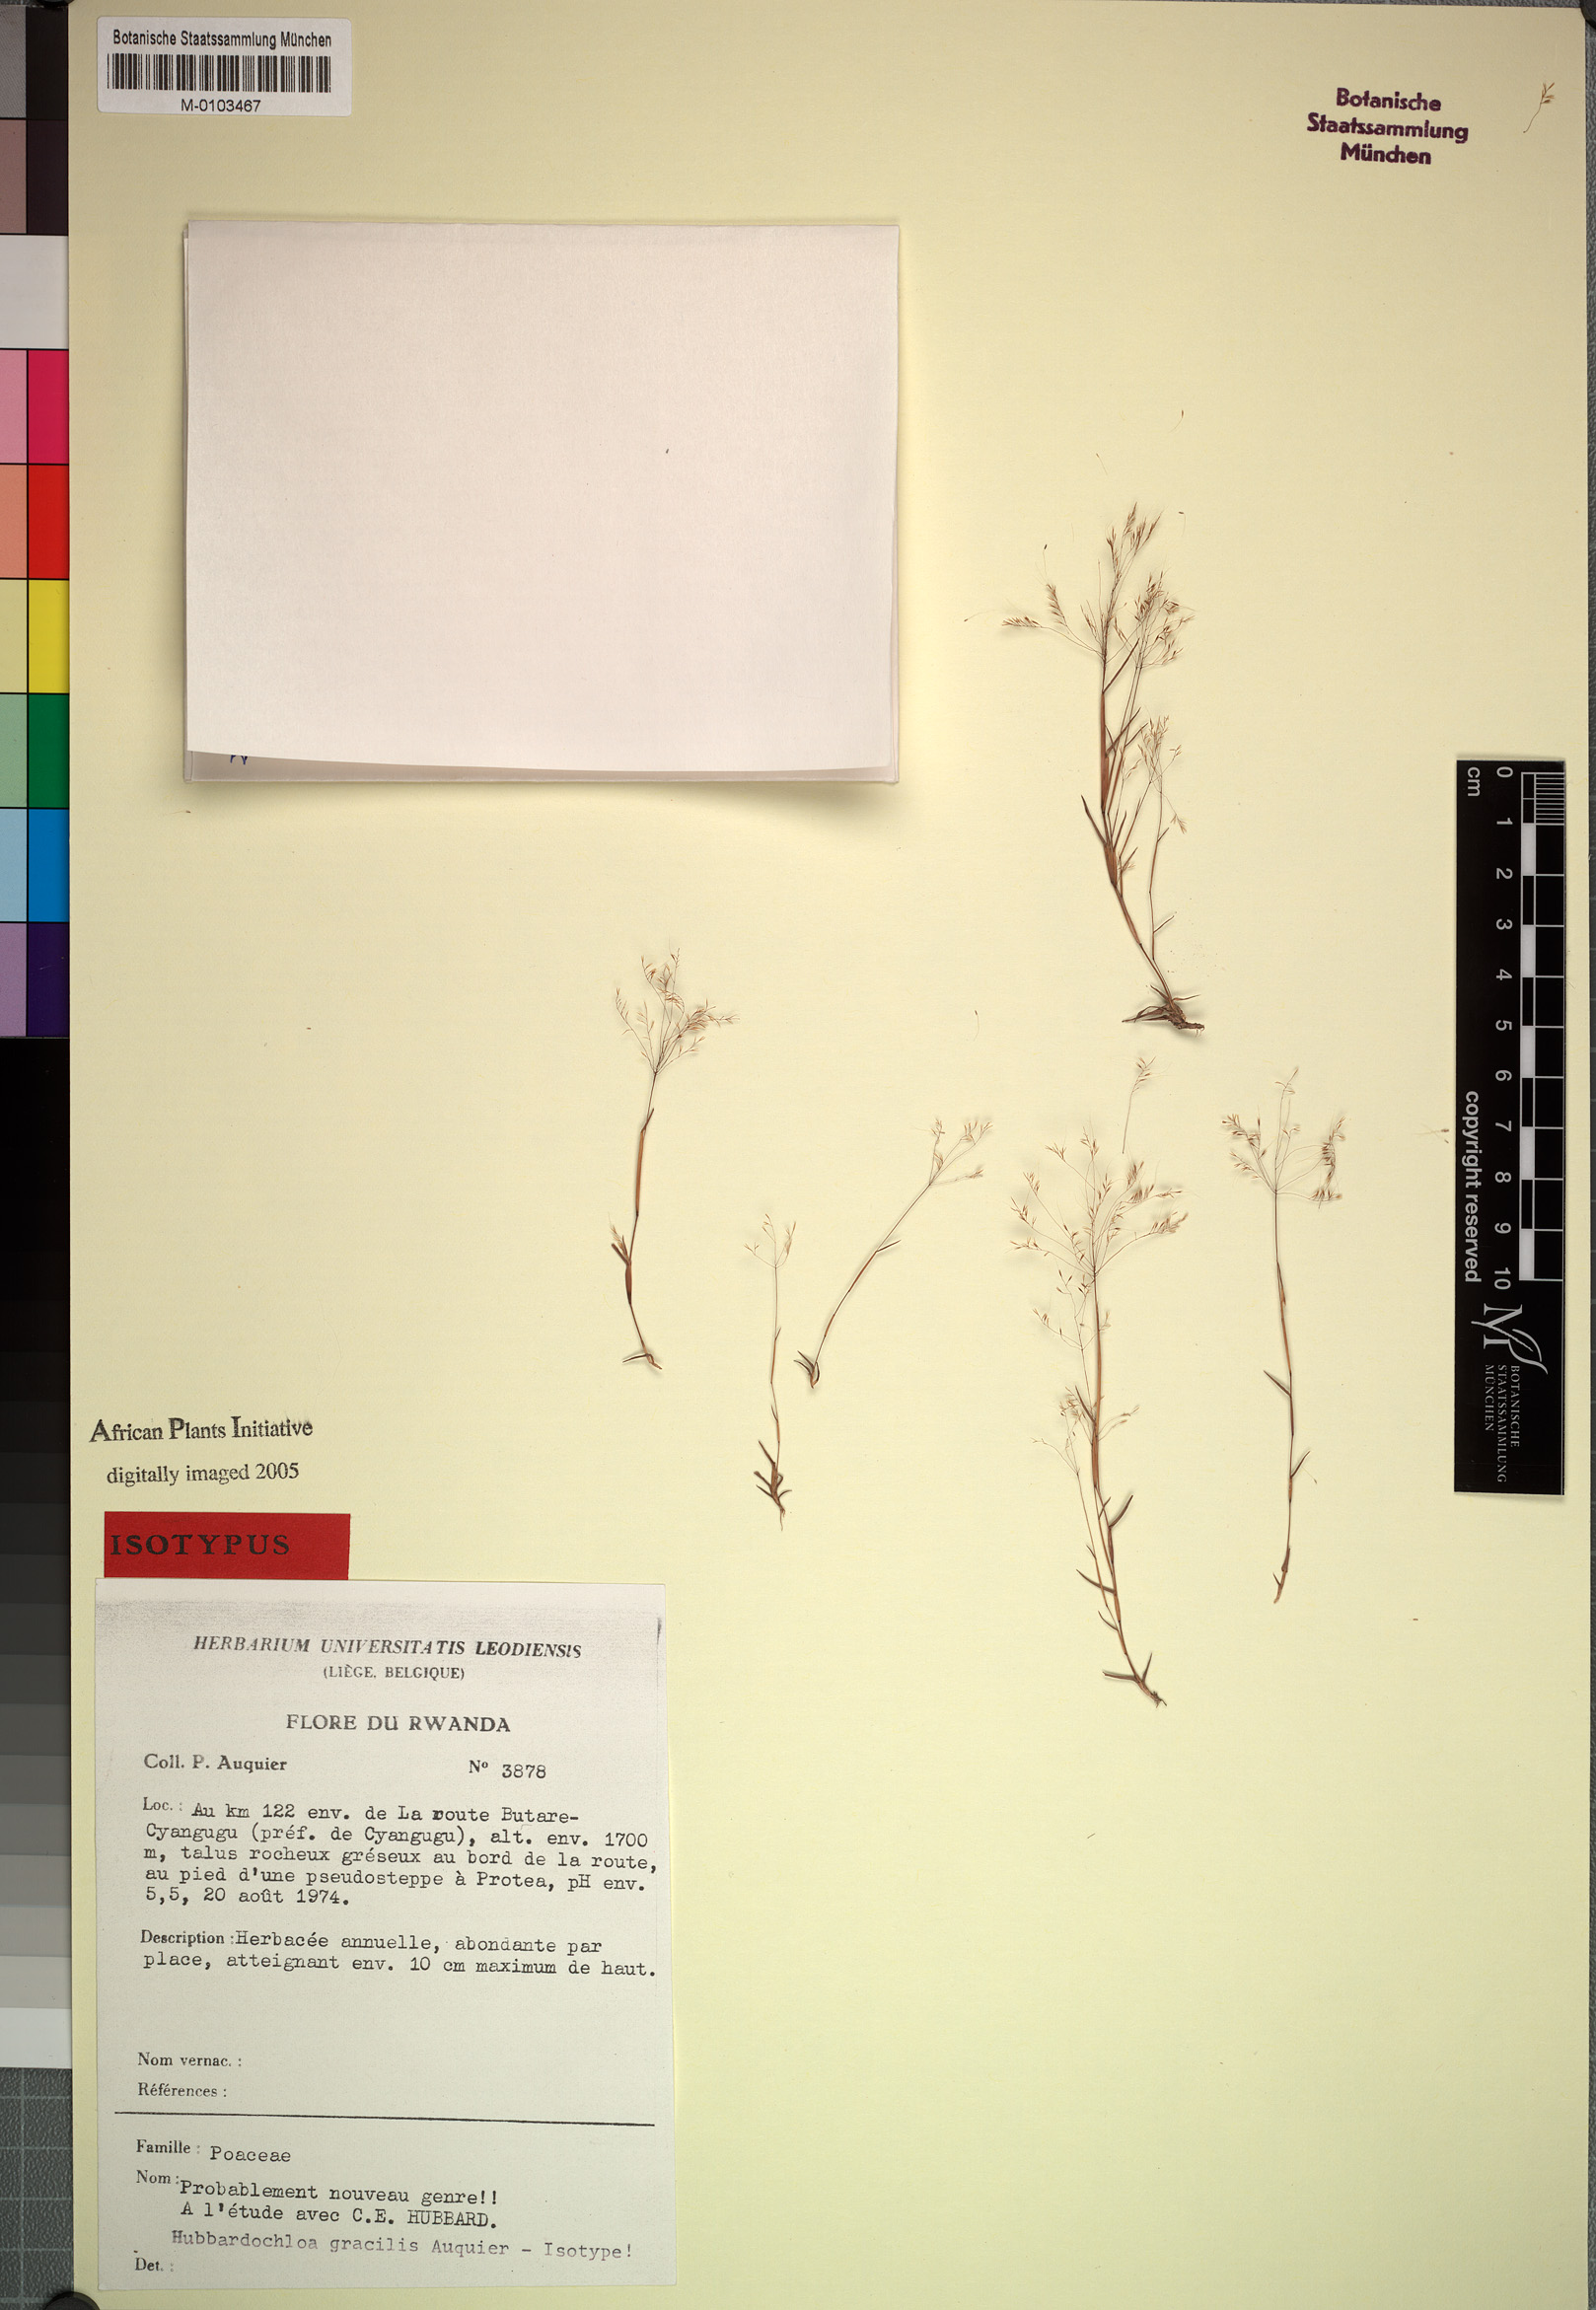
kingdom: Plantae
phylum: Tracheophyta
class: Liliopsida
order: Poales
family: Poaceae
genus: Hubbardochloa
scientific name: Hubbardochloa gracilis
